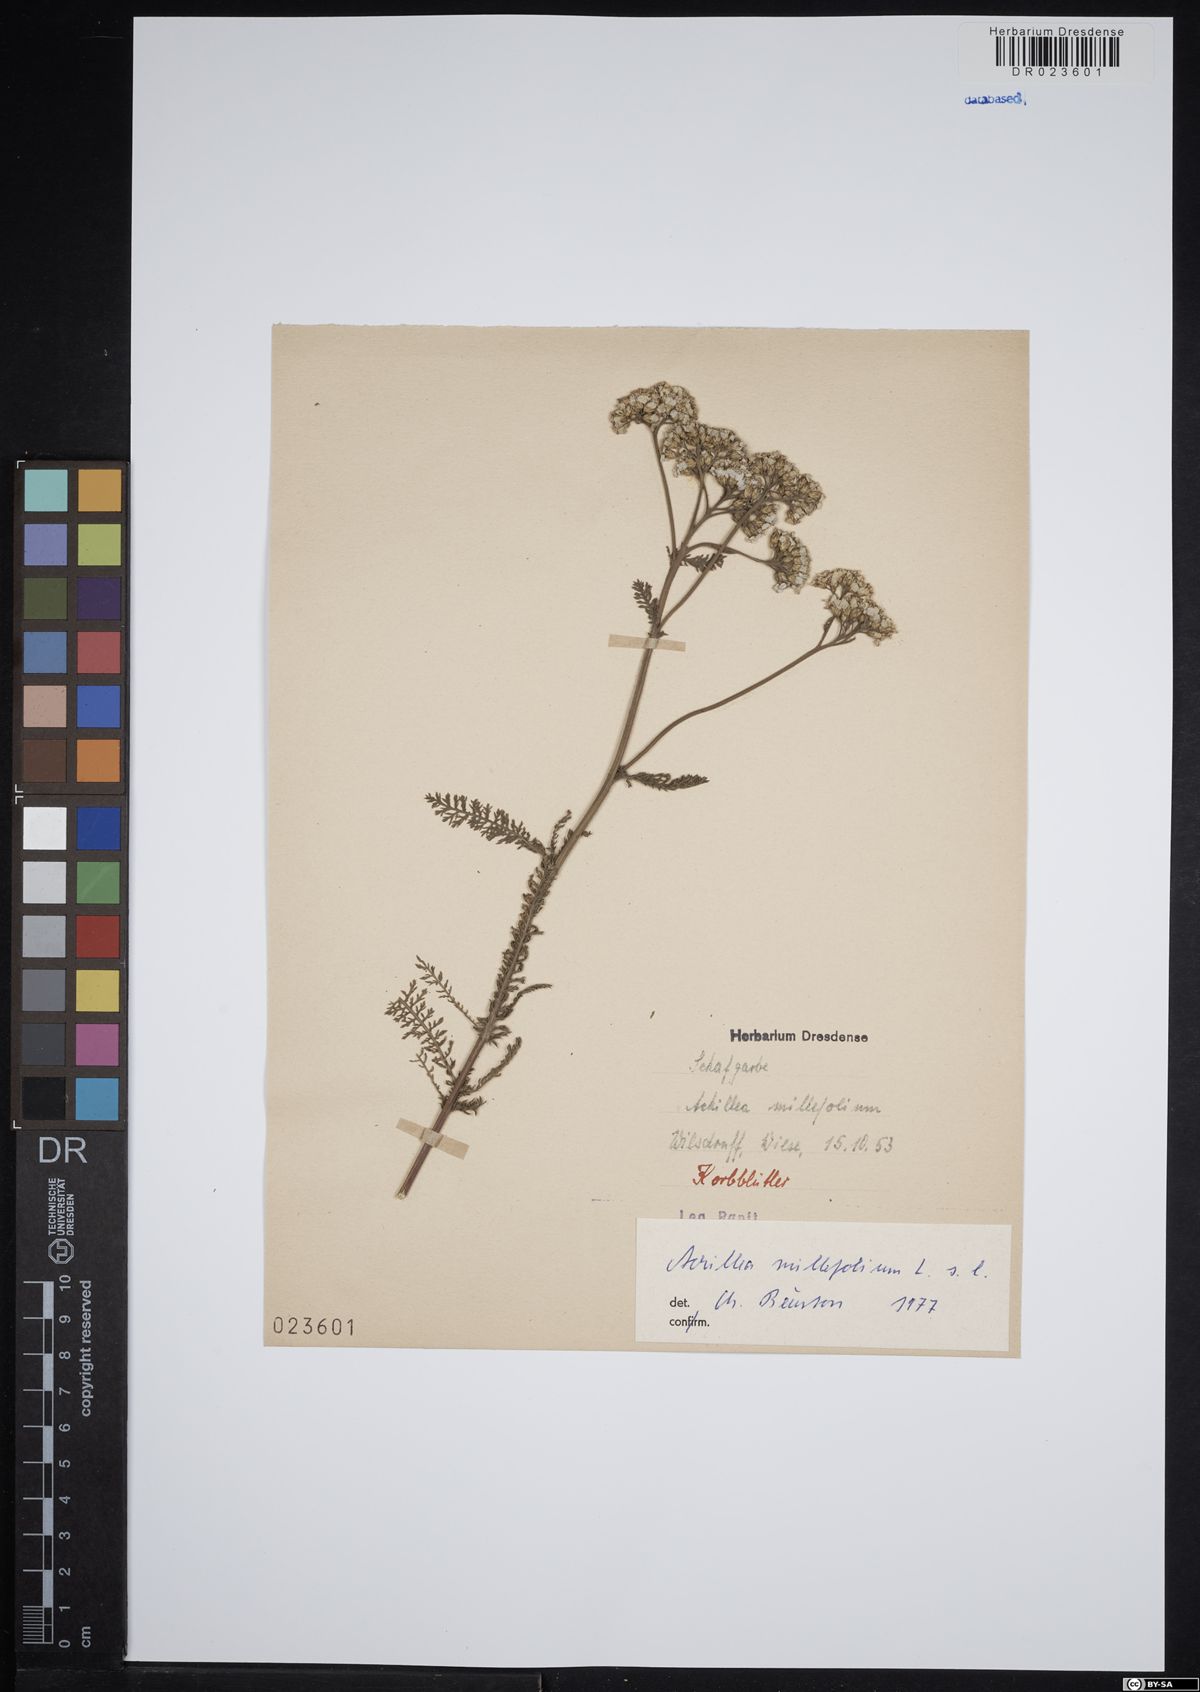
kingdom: Plantae
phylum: Tracheophyta
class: Magnoliopsida
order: Asterales
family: Asteraceae
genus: Achillea
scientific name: Achillea millefolium
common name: Yarrow
